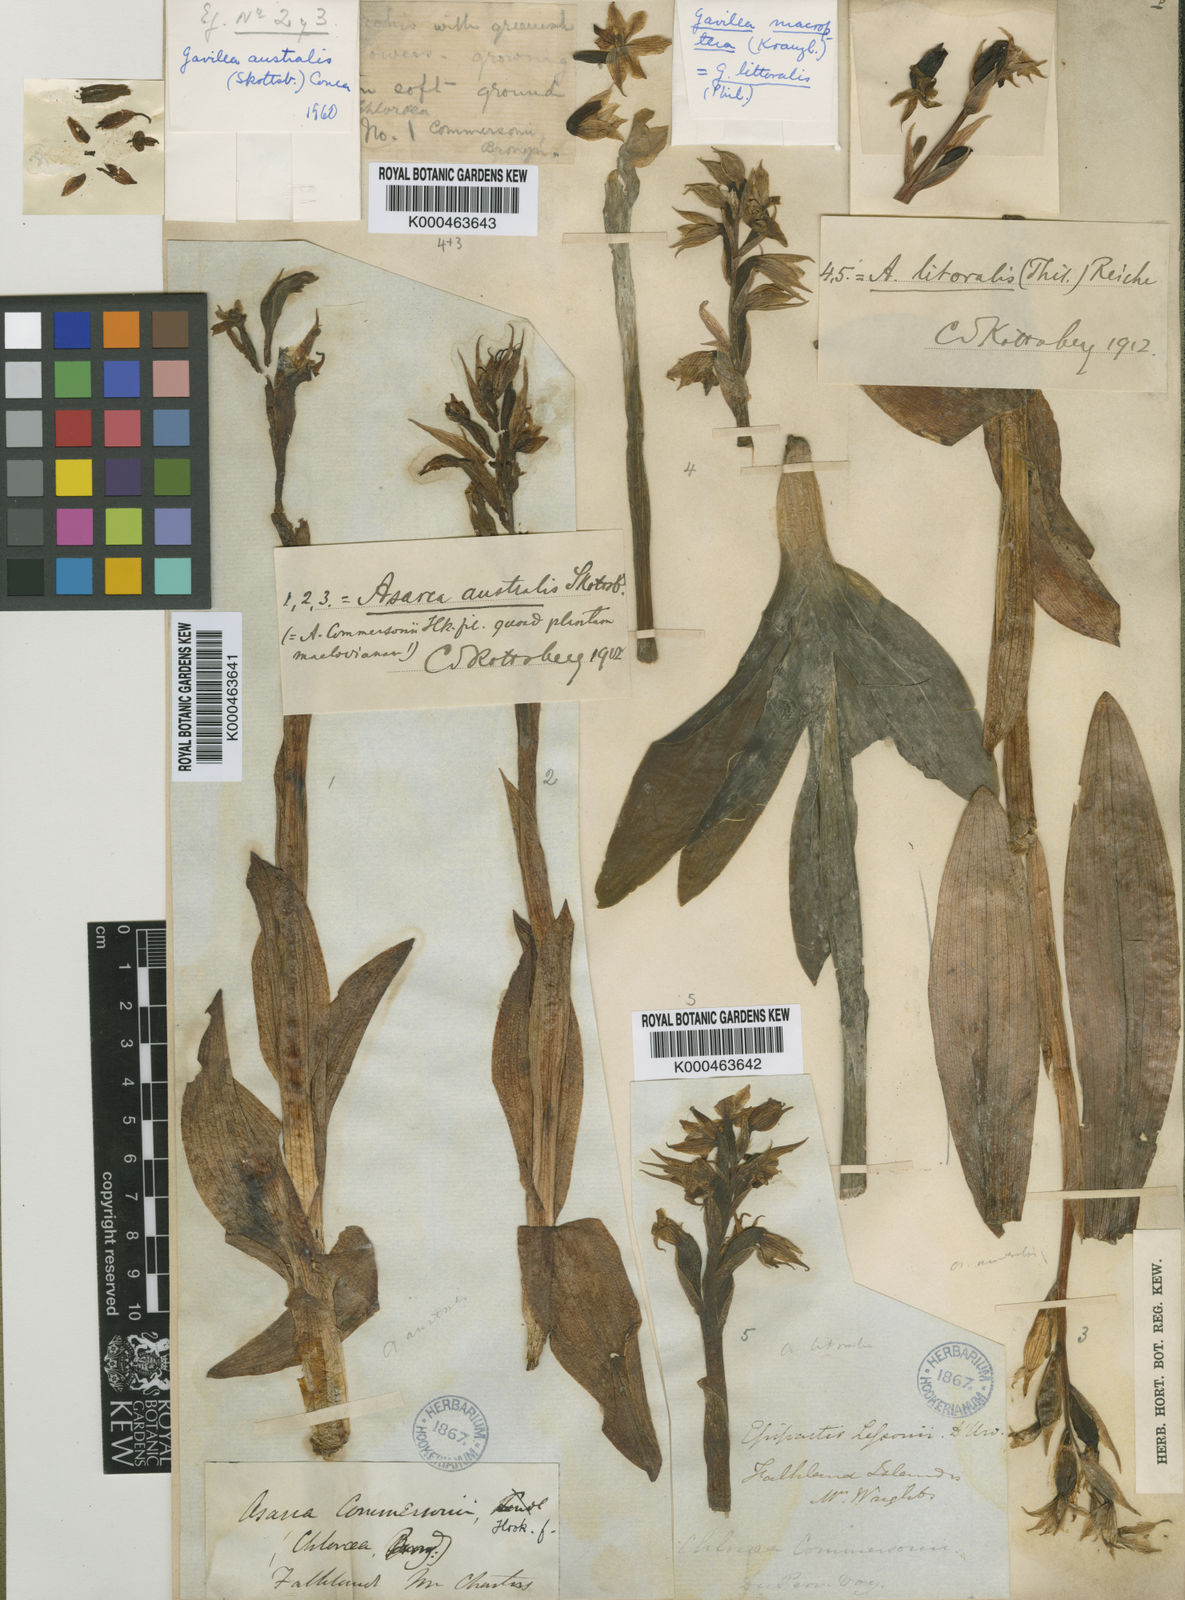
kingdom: Plantae
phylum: Tracheophyta
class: Liliopsida
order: Asparagales
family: Orchidaceae
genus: Gavilea
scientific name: Gavilea australis
